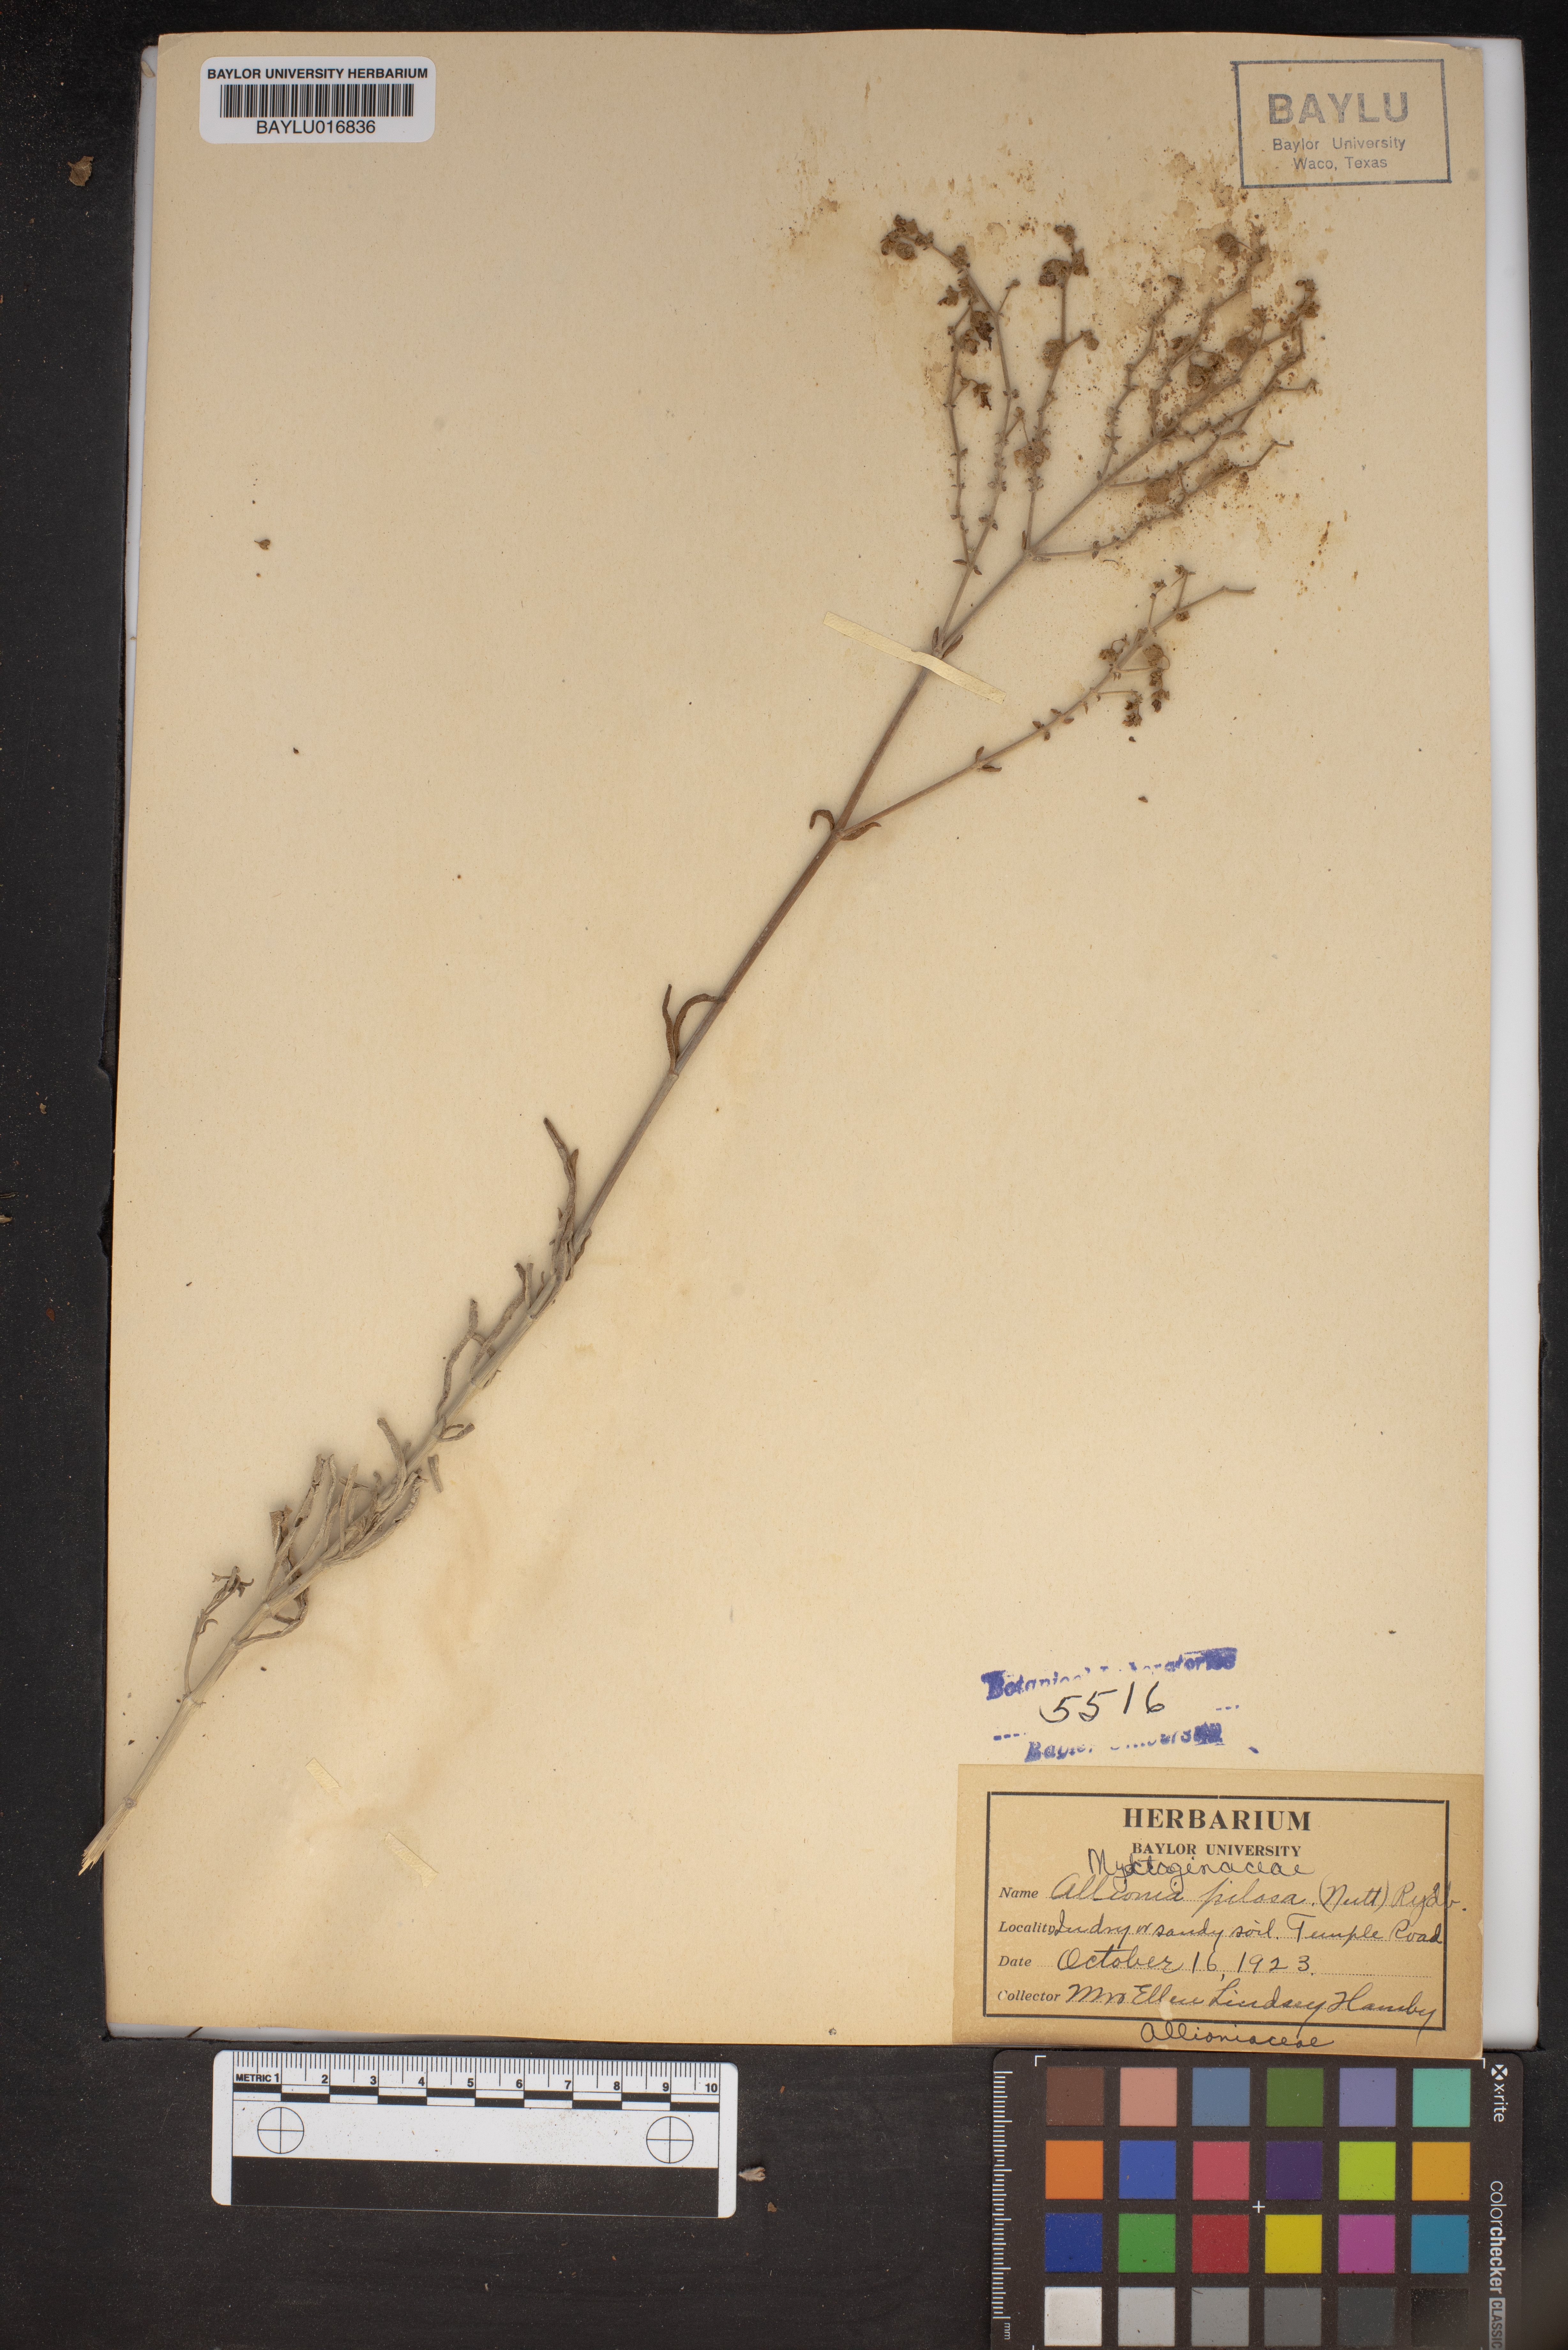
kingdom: Plantae
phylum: Tracheophyta
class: Magnoliopsida
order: Caryophyllales
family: Nyctaginaceae
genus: Mirabilis
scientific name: Mirabilis albida
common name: Hairy four-o'clock
